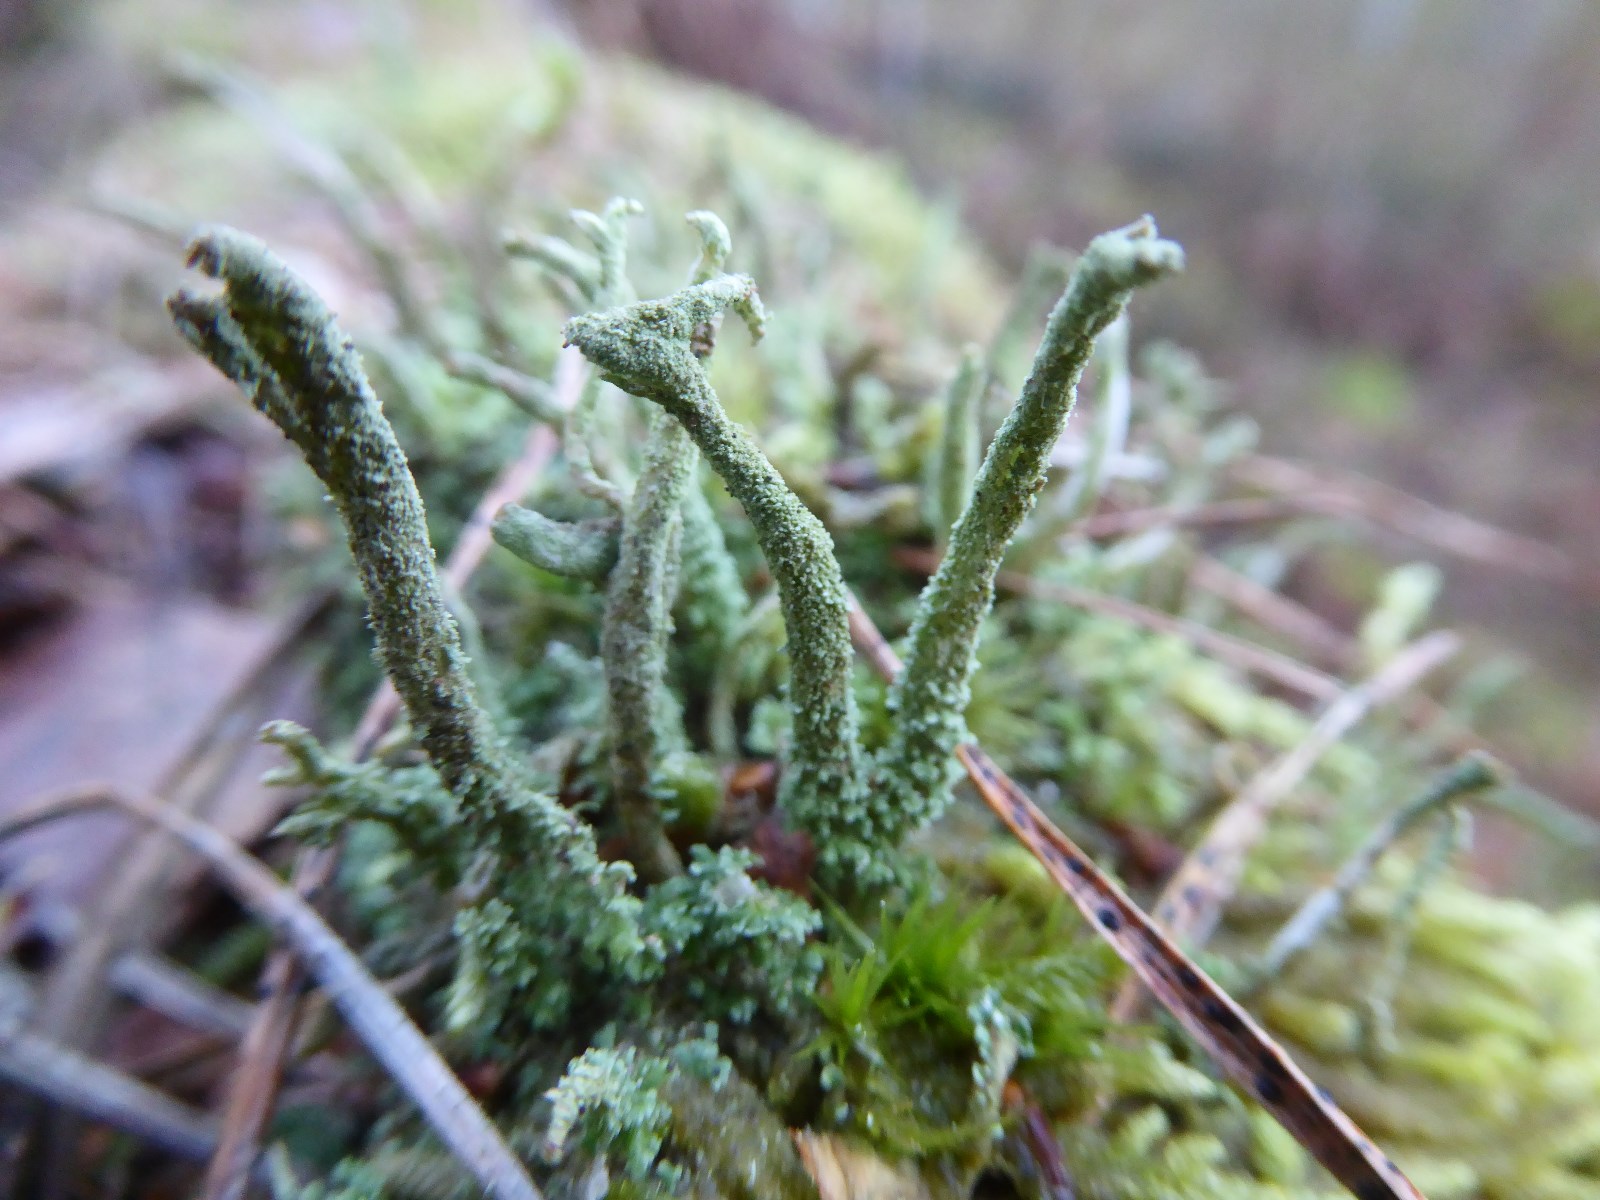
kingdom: Fungi
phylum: Ascomycota
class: Lecanoromycetes
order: Lecanorales
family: Cladoniaceae
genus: Cladonia
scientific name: Cladonia glauca
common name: grågrøn bægerlav
